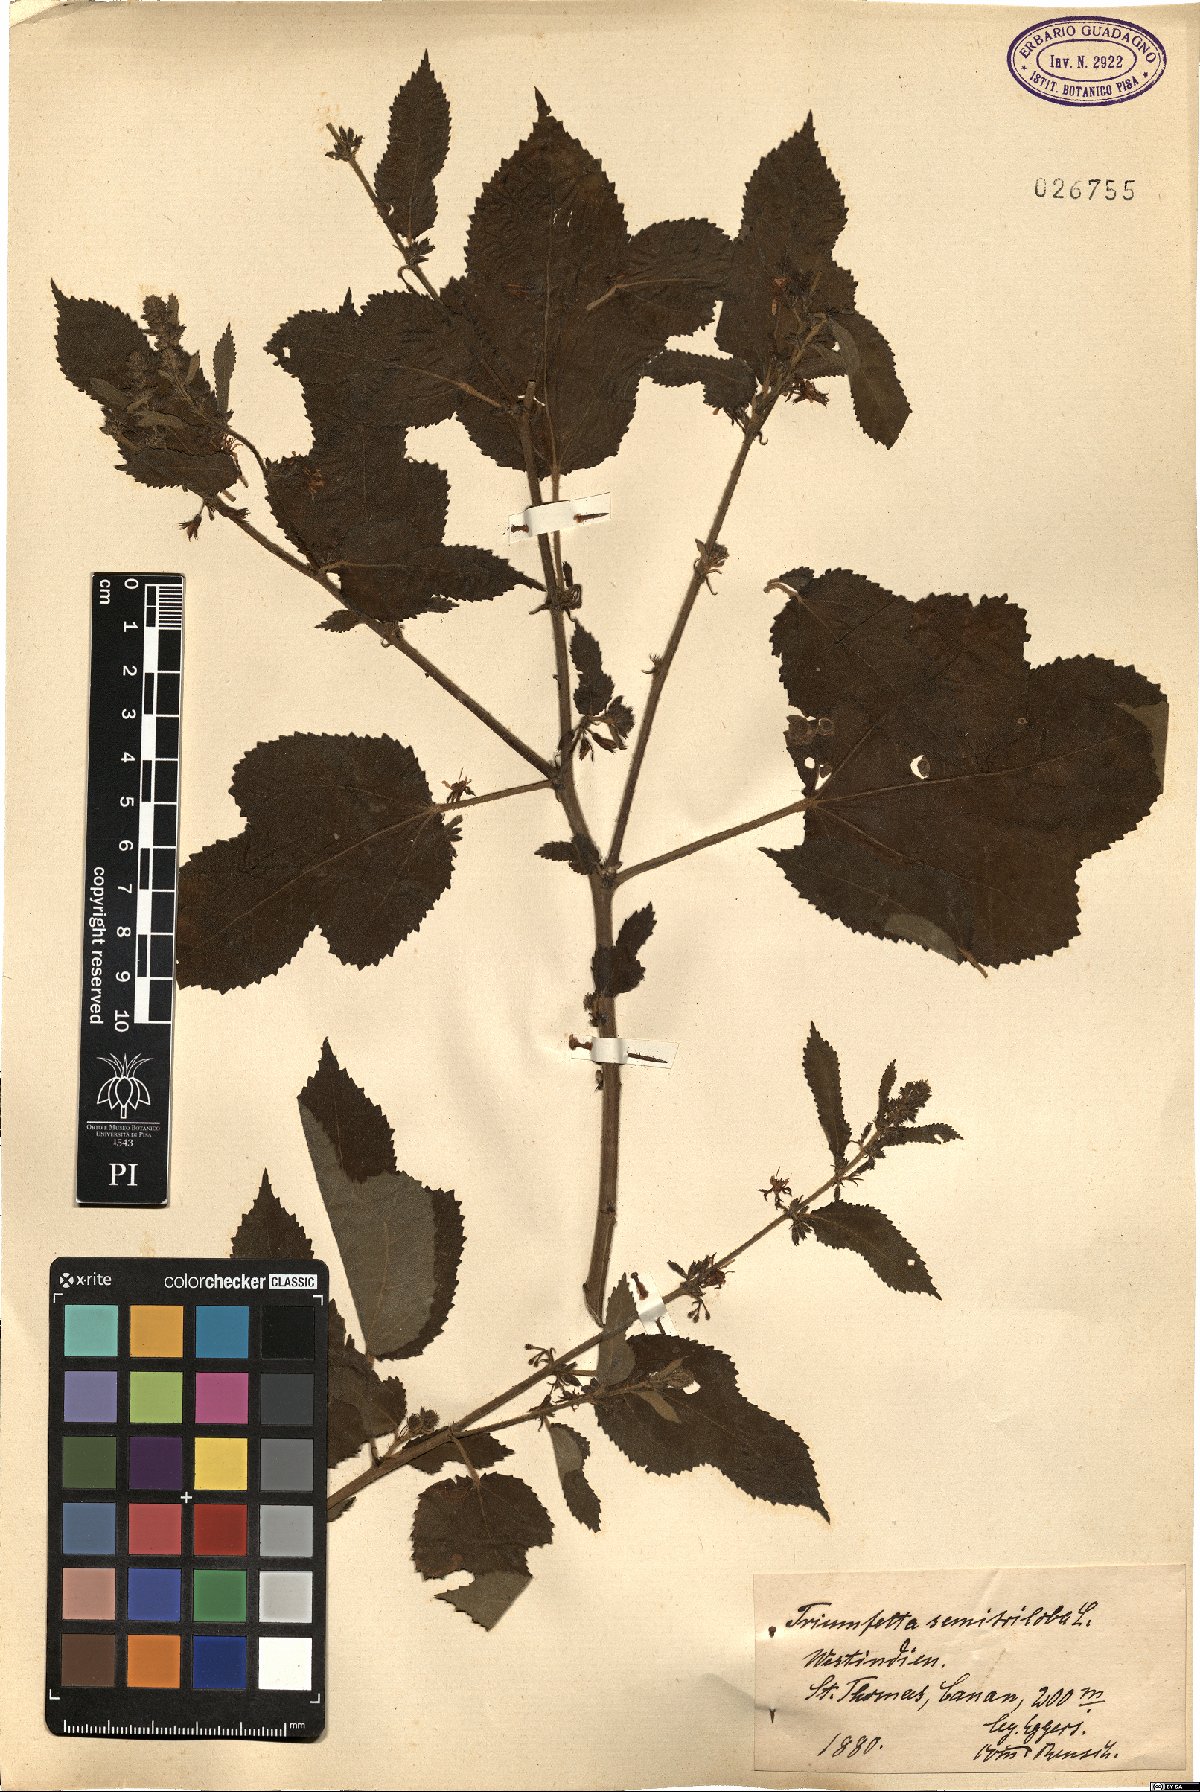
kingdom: Plantae
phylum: Tracheophyta
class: Magnoliopsida
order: Malvales
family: Malvaceae
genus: Triumfetta
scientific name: Triumfetta semitriloba
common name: Sacramento burbark
